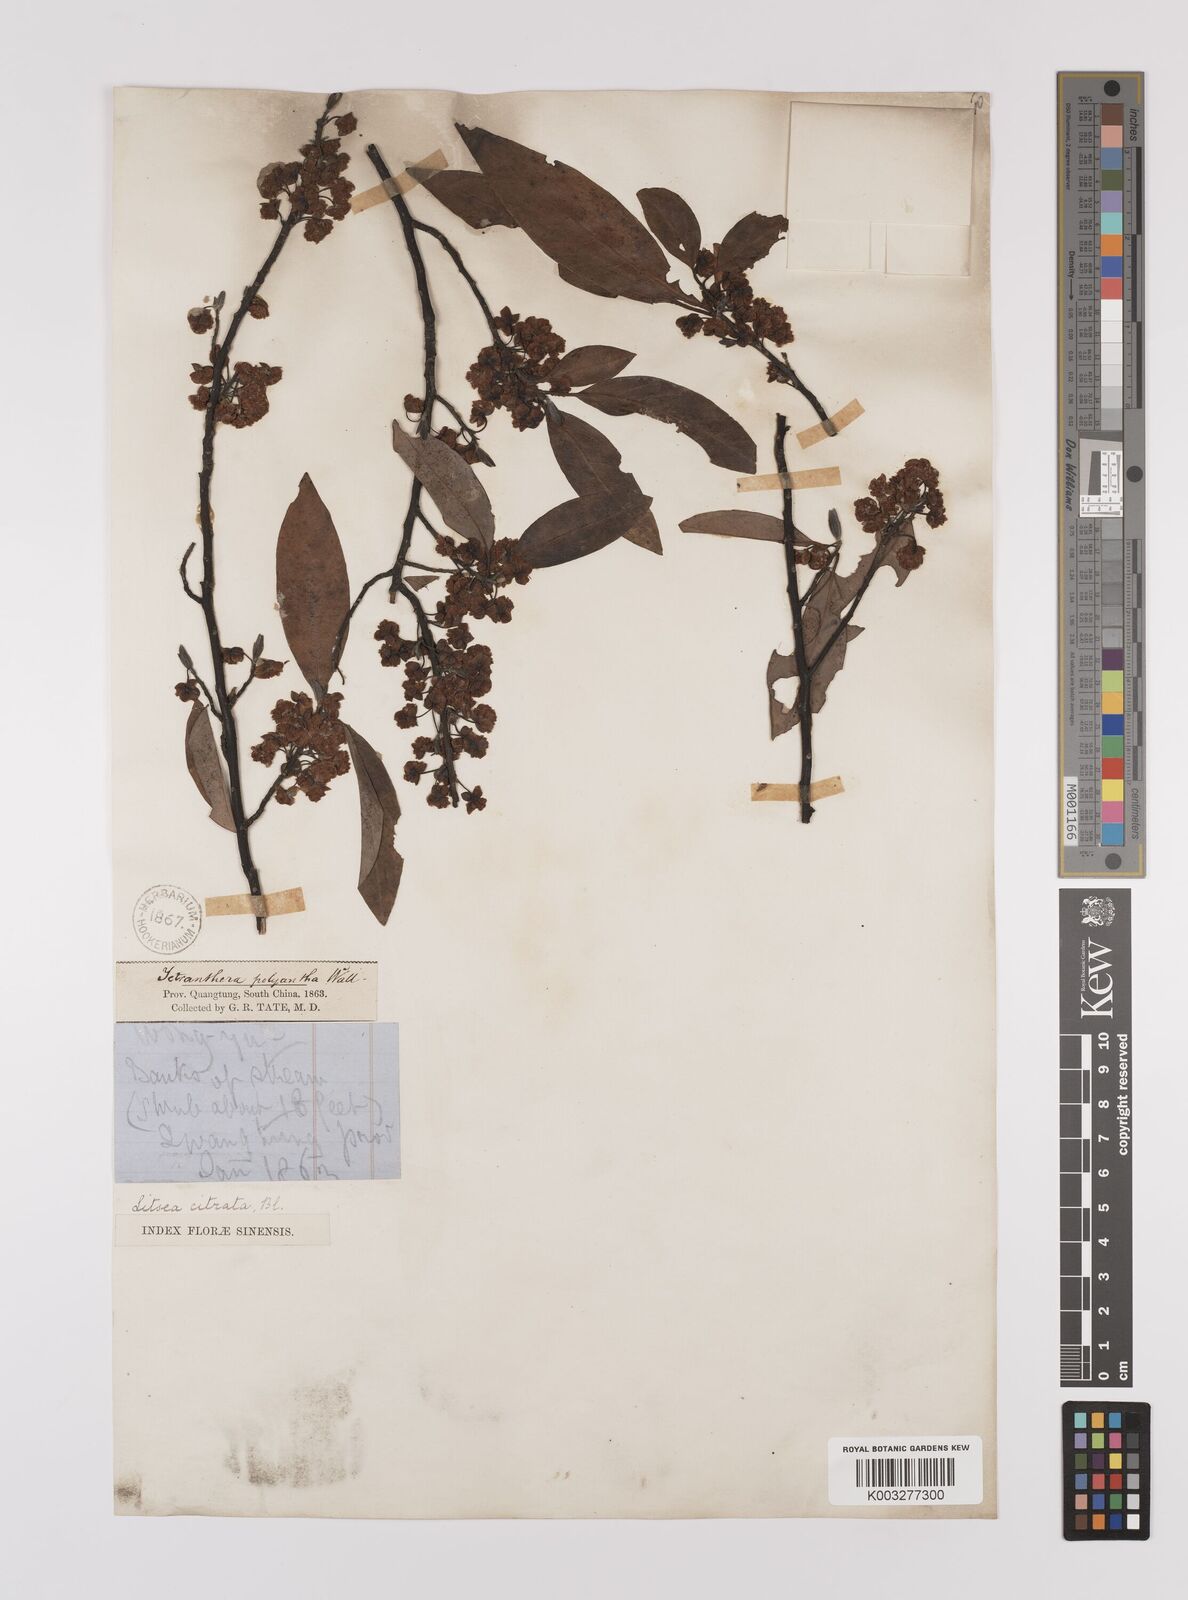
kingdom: Plantae
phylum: Tracheophyta
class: Magnoliopsida
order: Laurales
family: Lauraceae
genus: Litsea
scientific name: Litsea cubeba
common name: Mountain-pepper
